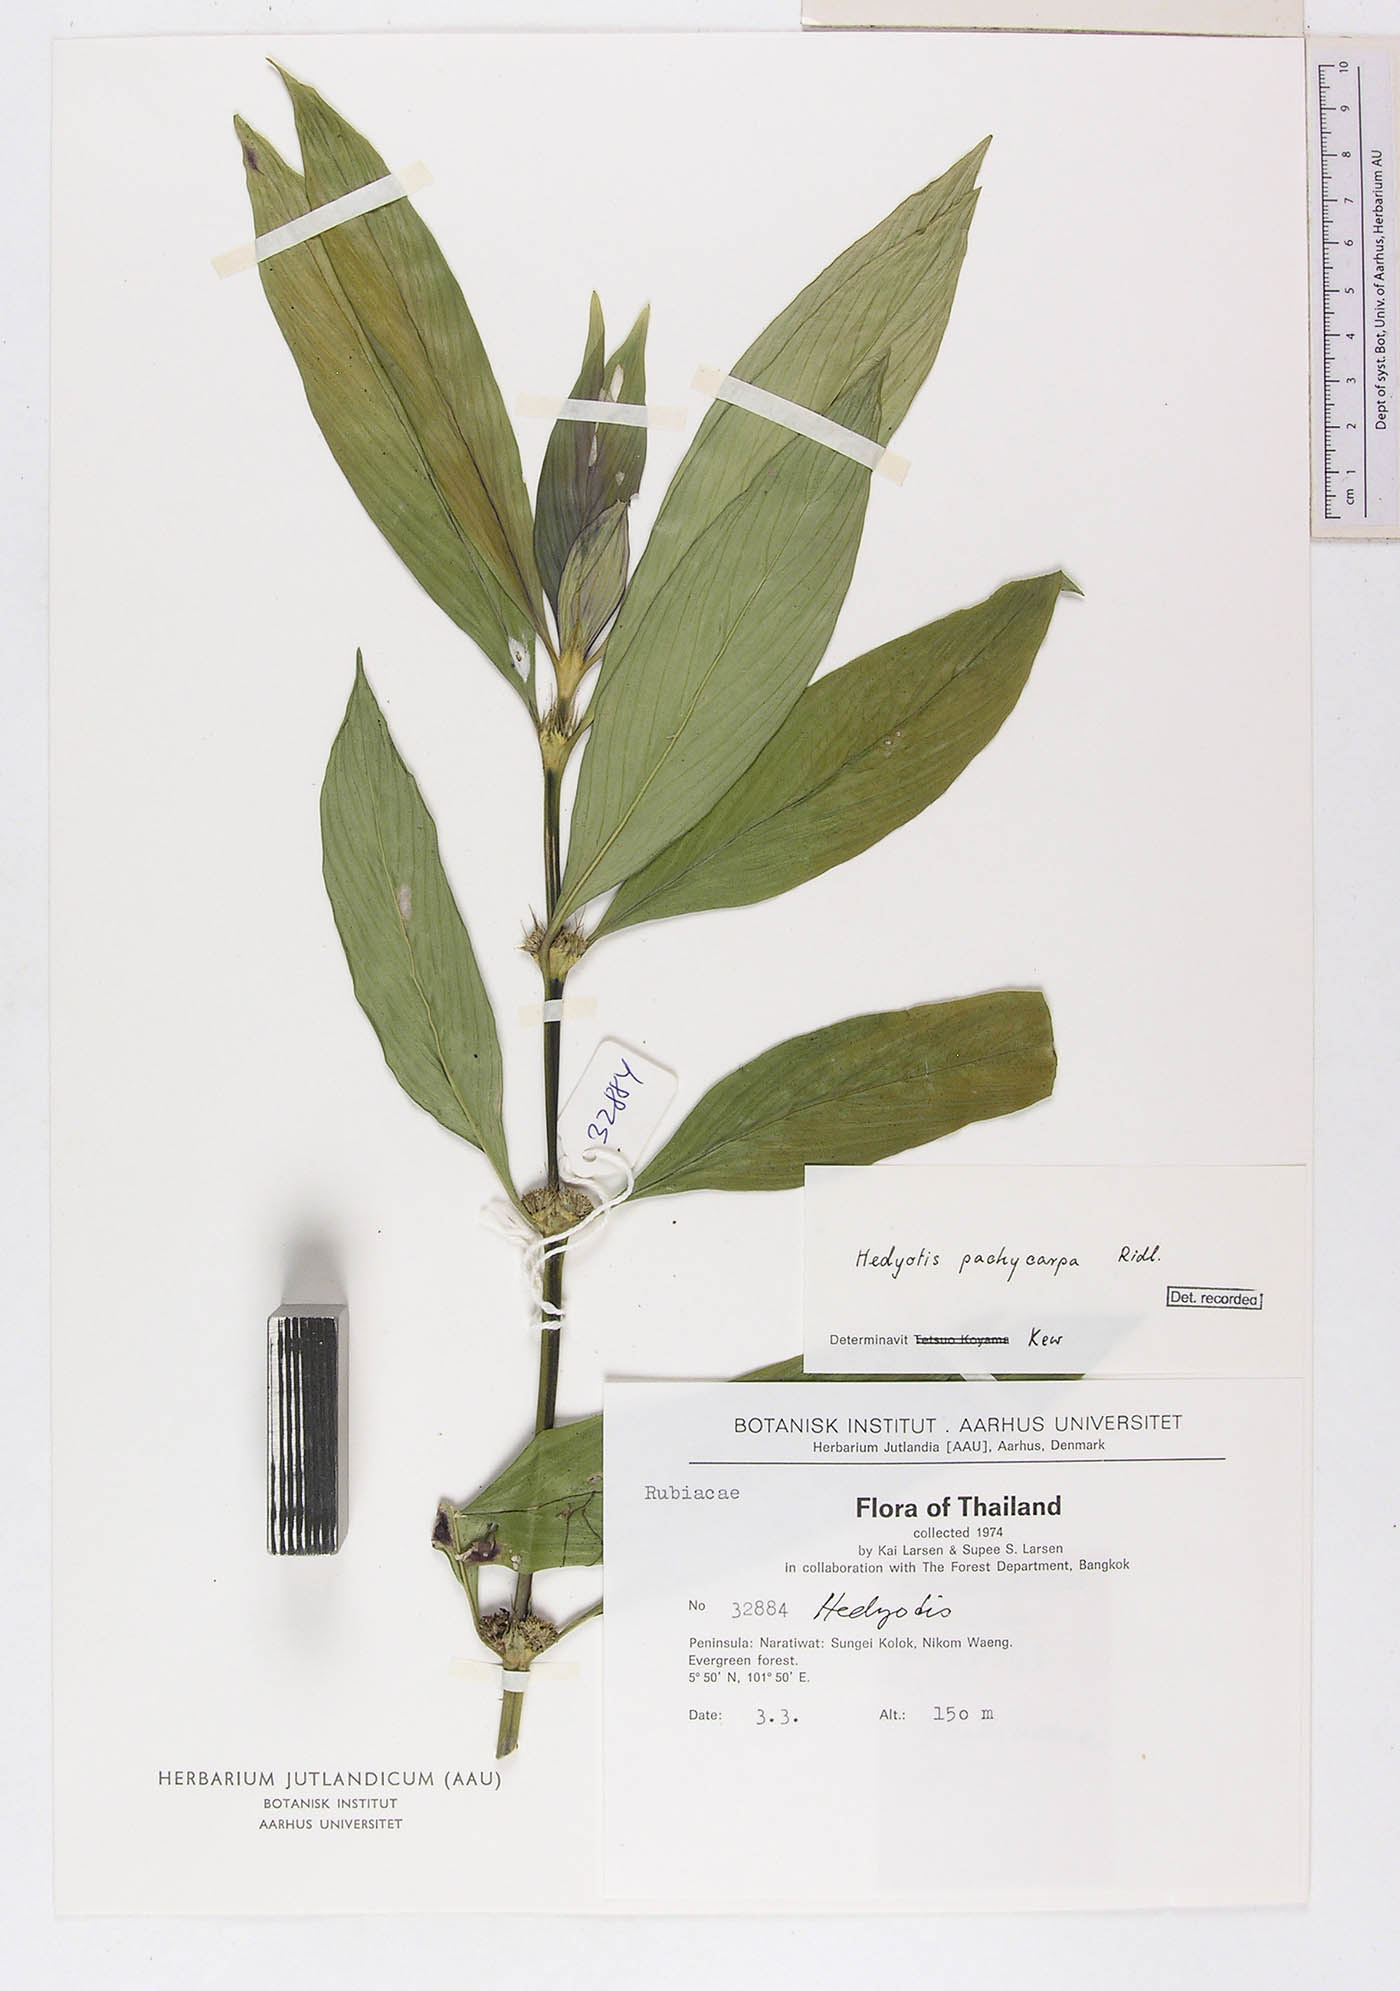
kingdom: Plantae
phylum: Tracheophyta
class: Magnoliopsida
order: Gentianales
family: Rubiaceae
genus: Exallage
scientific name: Exallage pachycarpa
